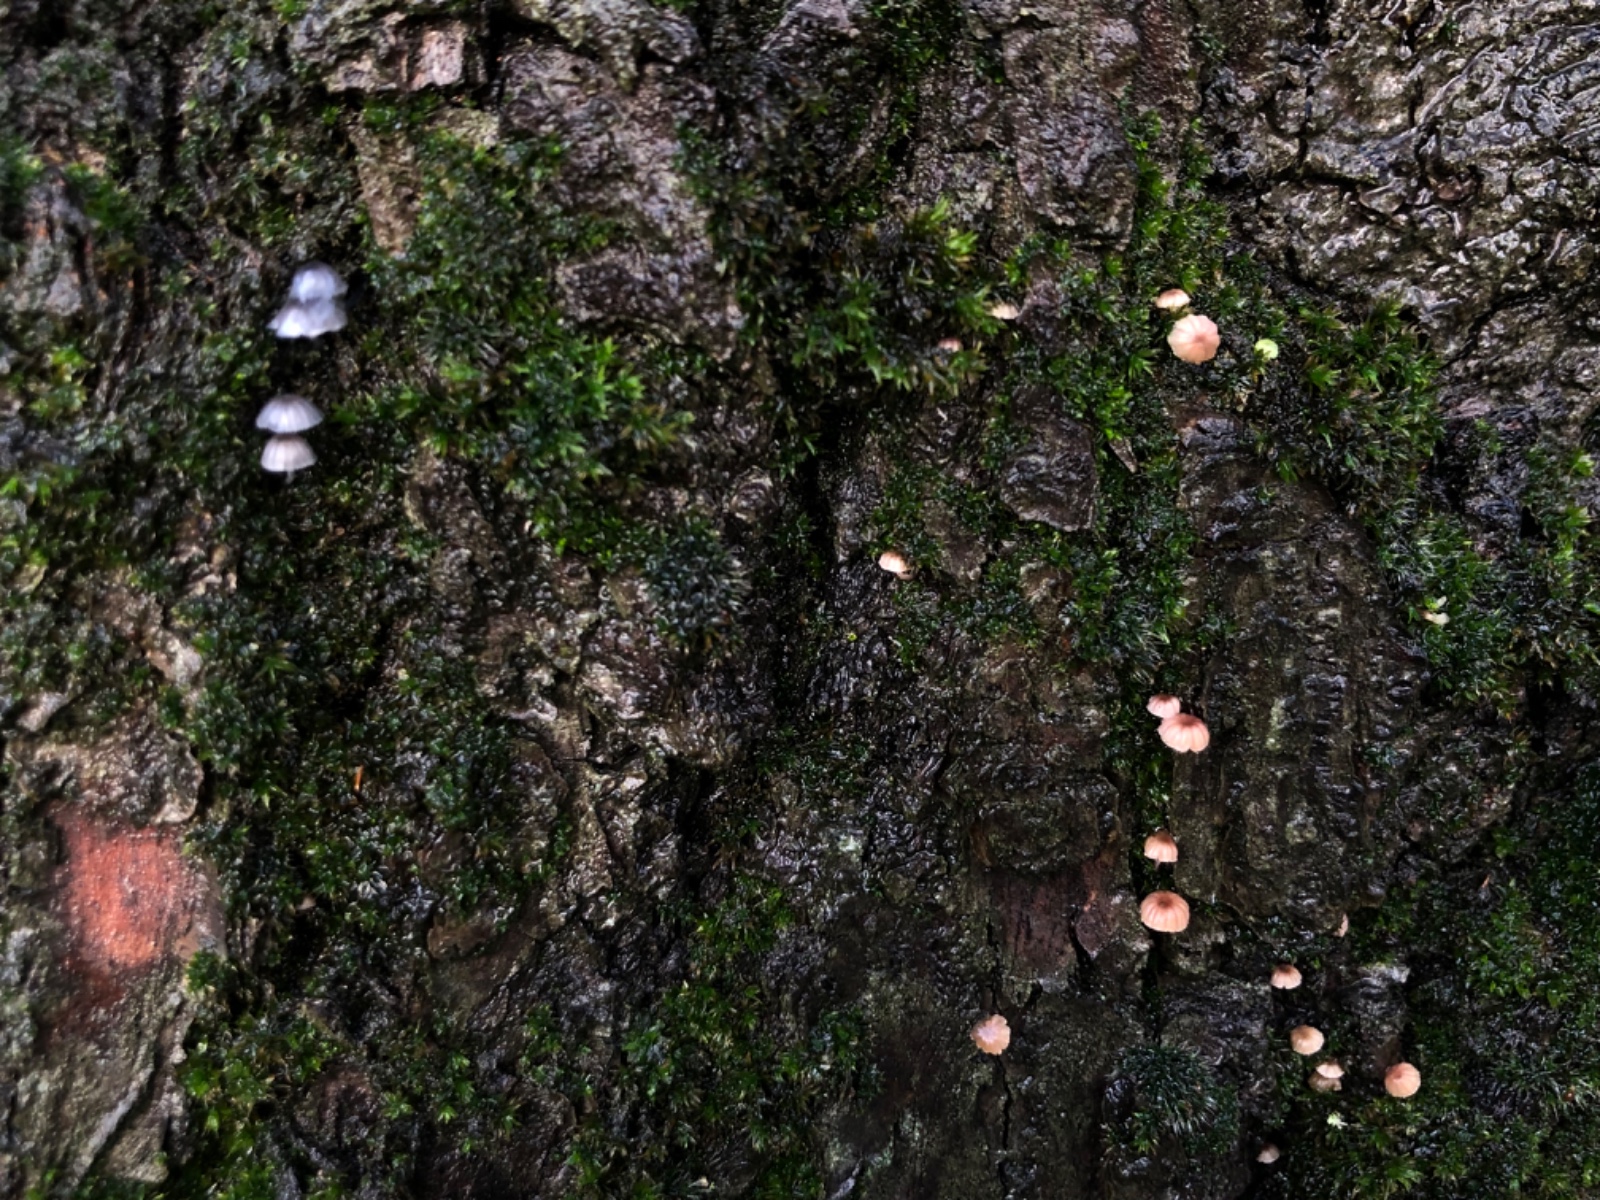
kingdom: Fungi
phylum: Basidiomycota
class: Agaricomycetes
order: Agaricales
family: Mycenaceae
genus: Mycena
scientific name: Mycena meliigena
